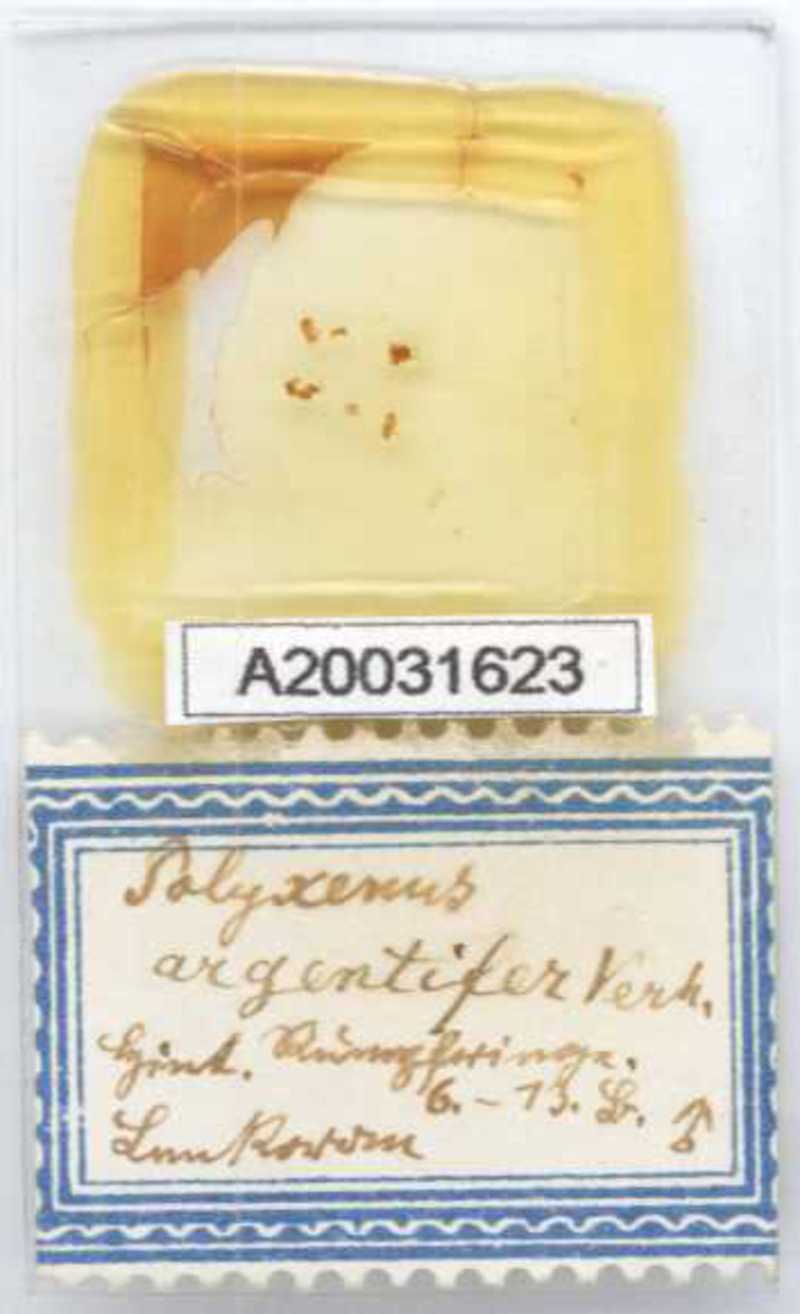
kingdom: Animalia
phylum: Arthropoda
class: Diplopoda
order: Polyxenida
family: Polyxenidae
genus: Propolyxenus
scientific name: Propolyxenus argentifer
